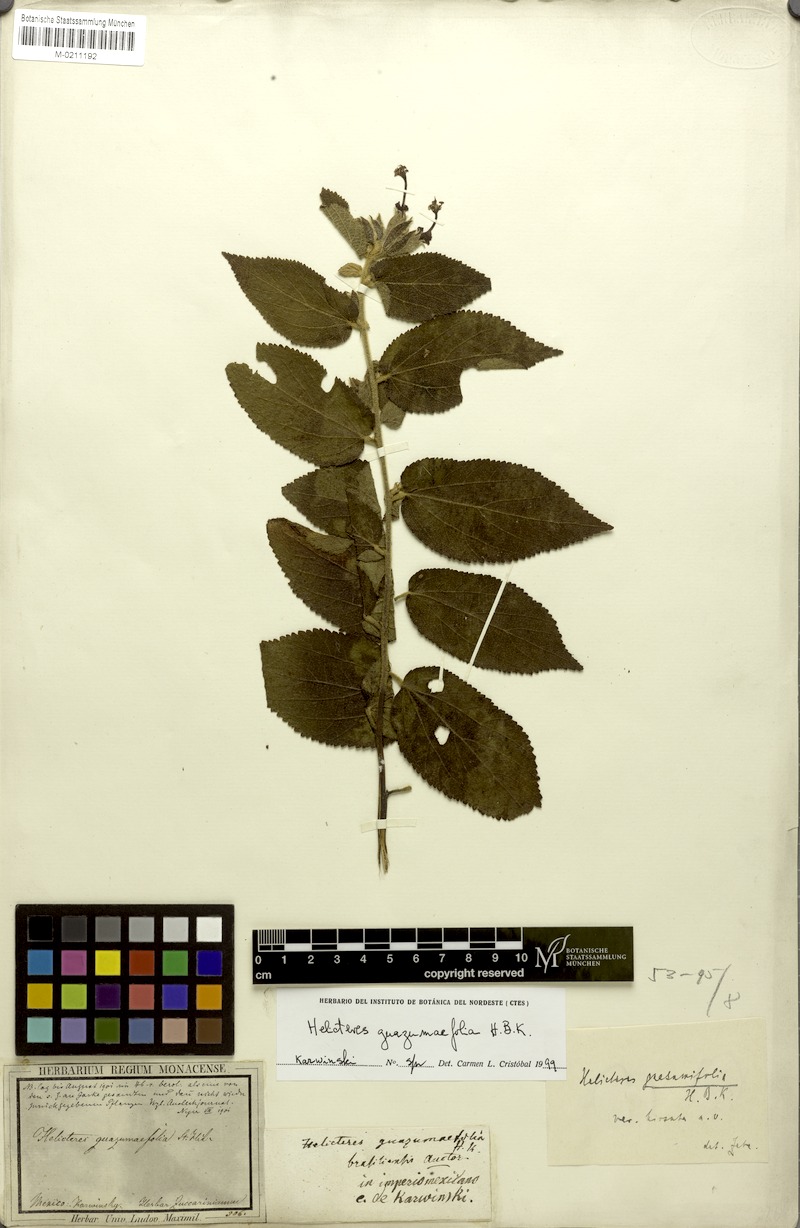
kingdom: Plantae
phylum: Tracheophyta
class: Magnoliopsida
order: Malvales
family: Malvaceae
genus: Helicteres
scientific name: Helicteres guazumifolia
